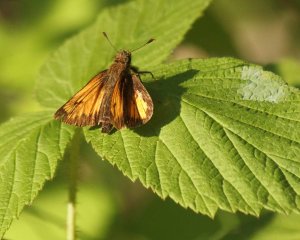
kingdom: Animalia
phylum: Arthropoda
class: Insecta
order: Lepidoptera
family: Hesperiidae
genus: Lon
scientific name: Lon hobomok
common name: Hobomok Skipper
